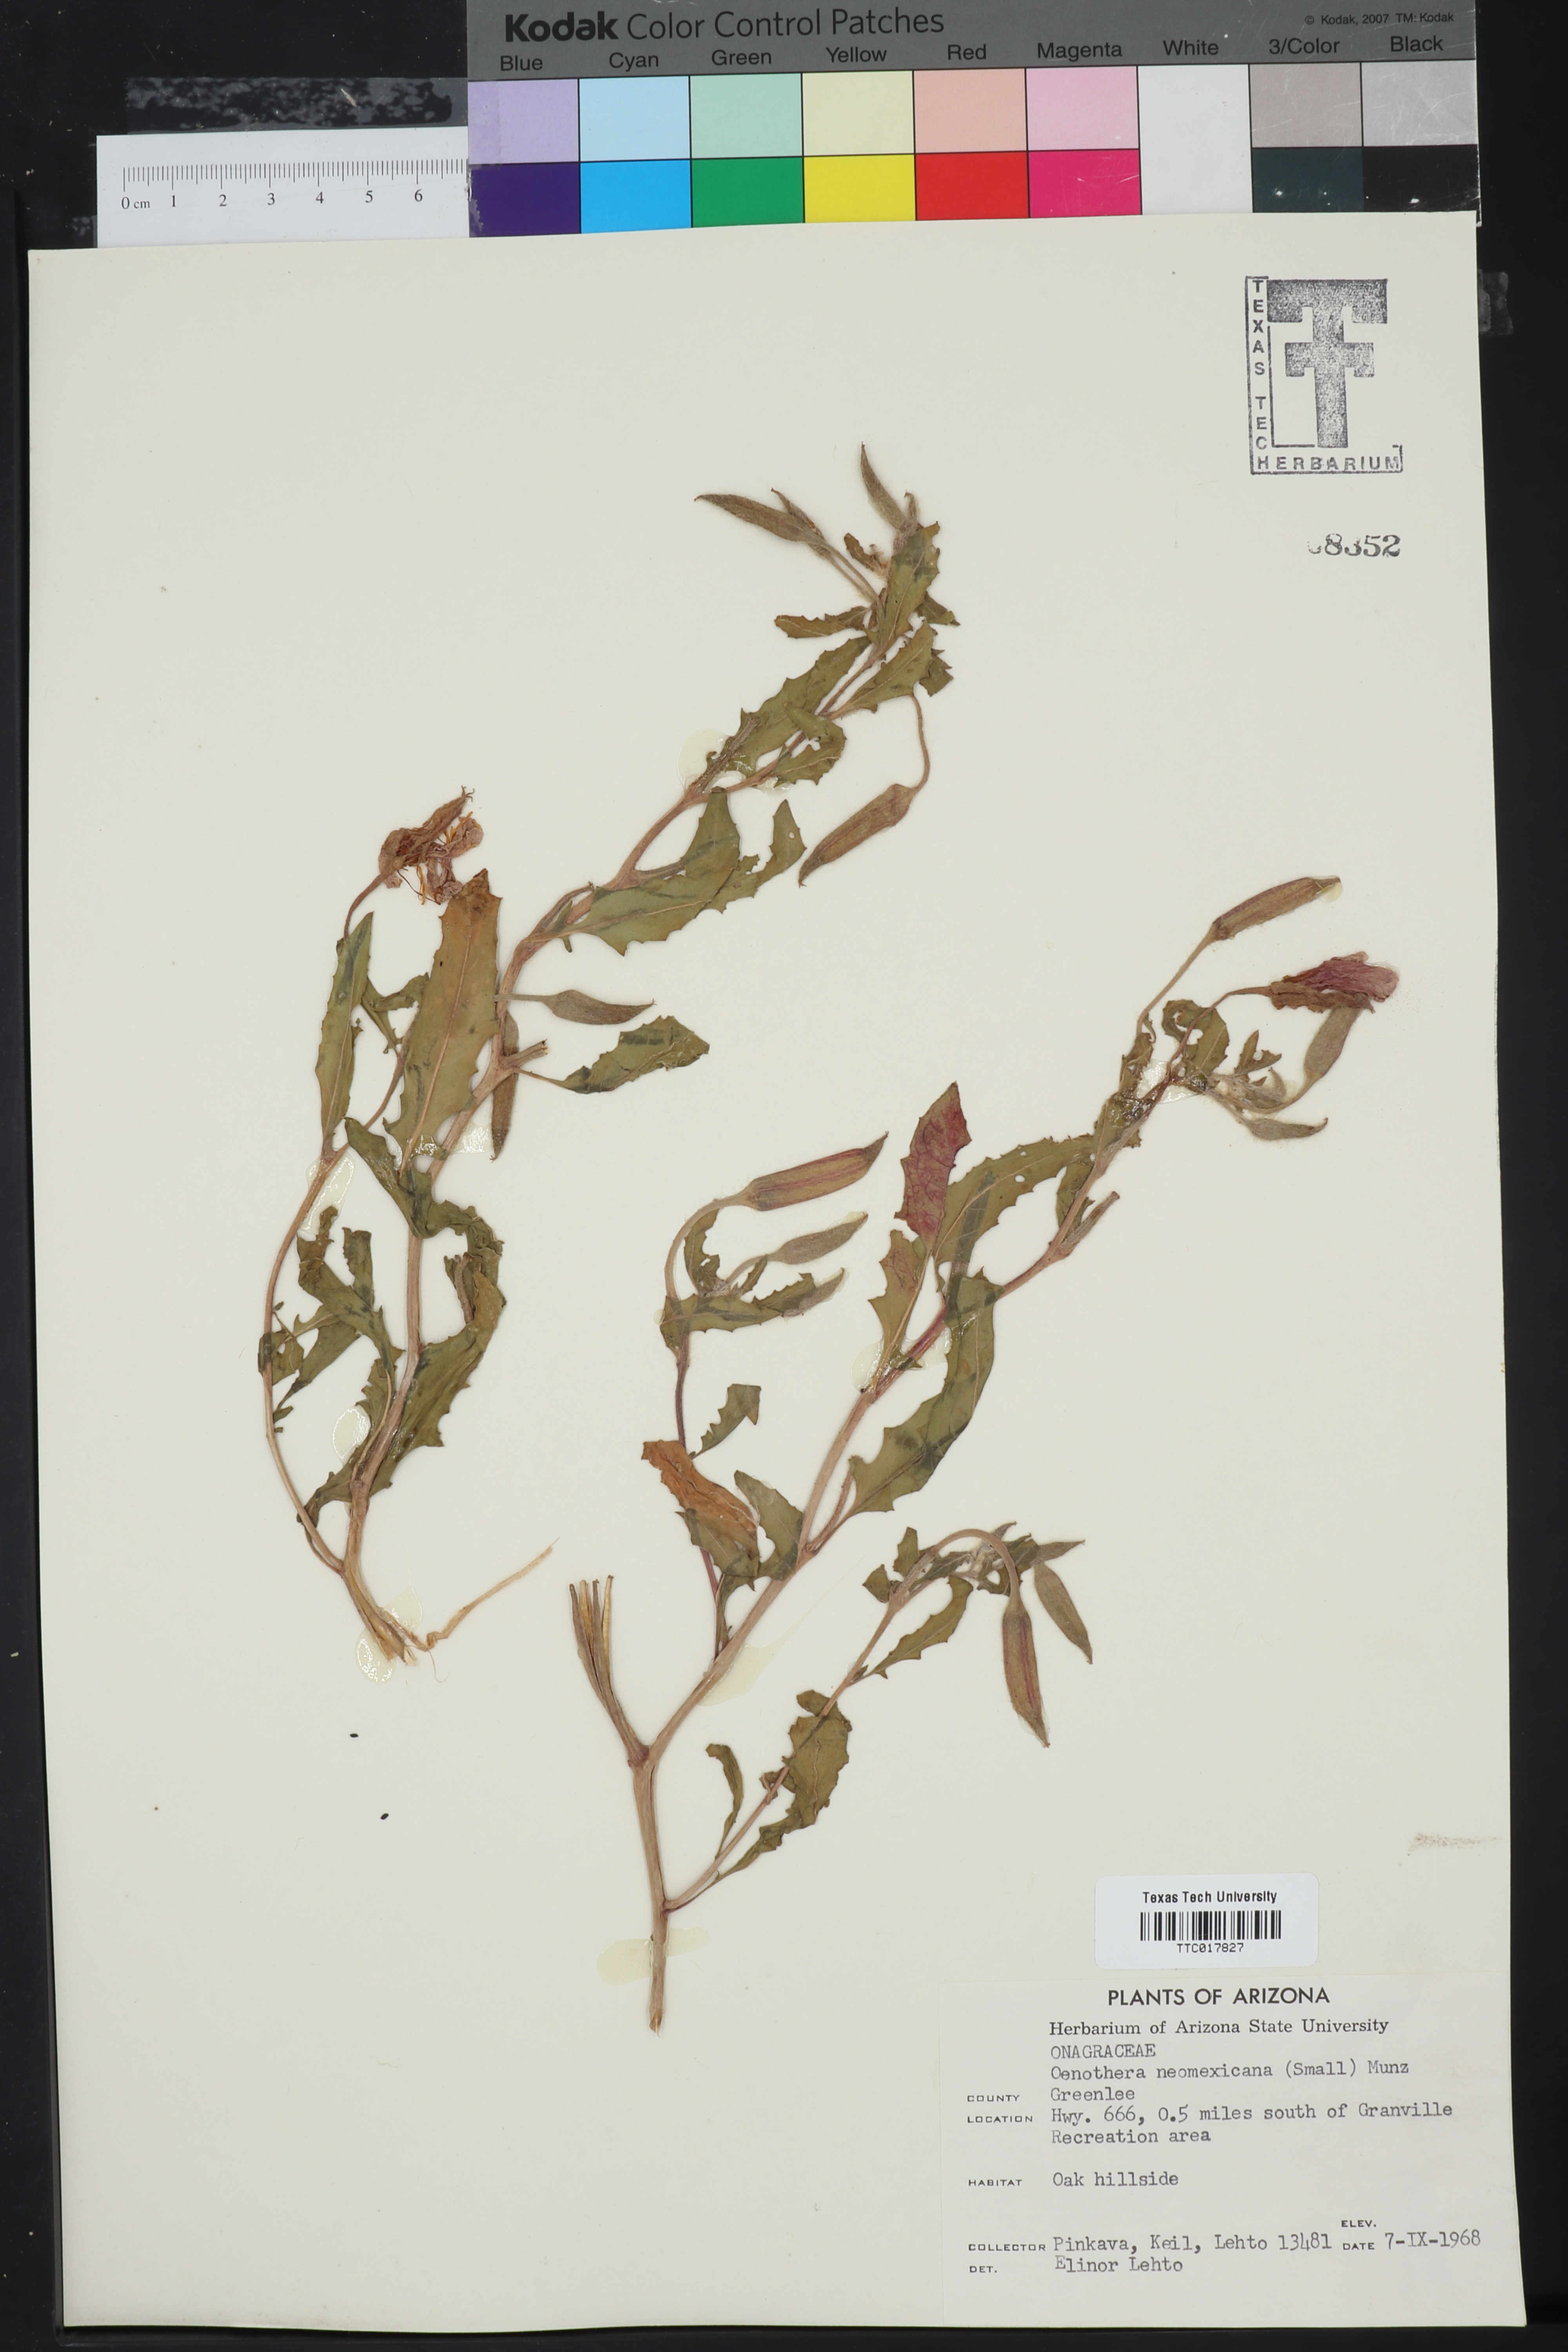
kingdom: Plantae
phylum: Tracheophyta
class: Magnoliopsida
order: Myrtales
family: Onagraceae
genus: Oenothera
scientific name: Oenothera neomexicana
